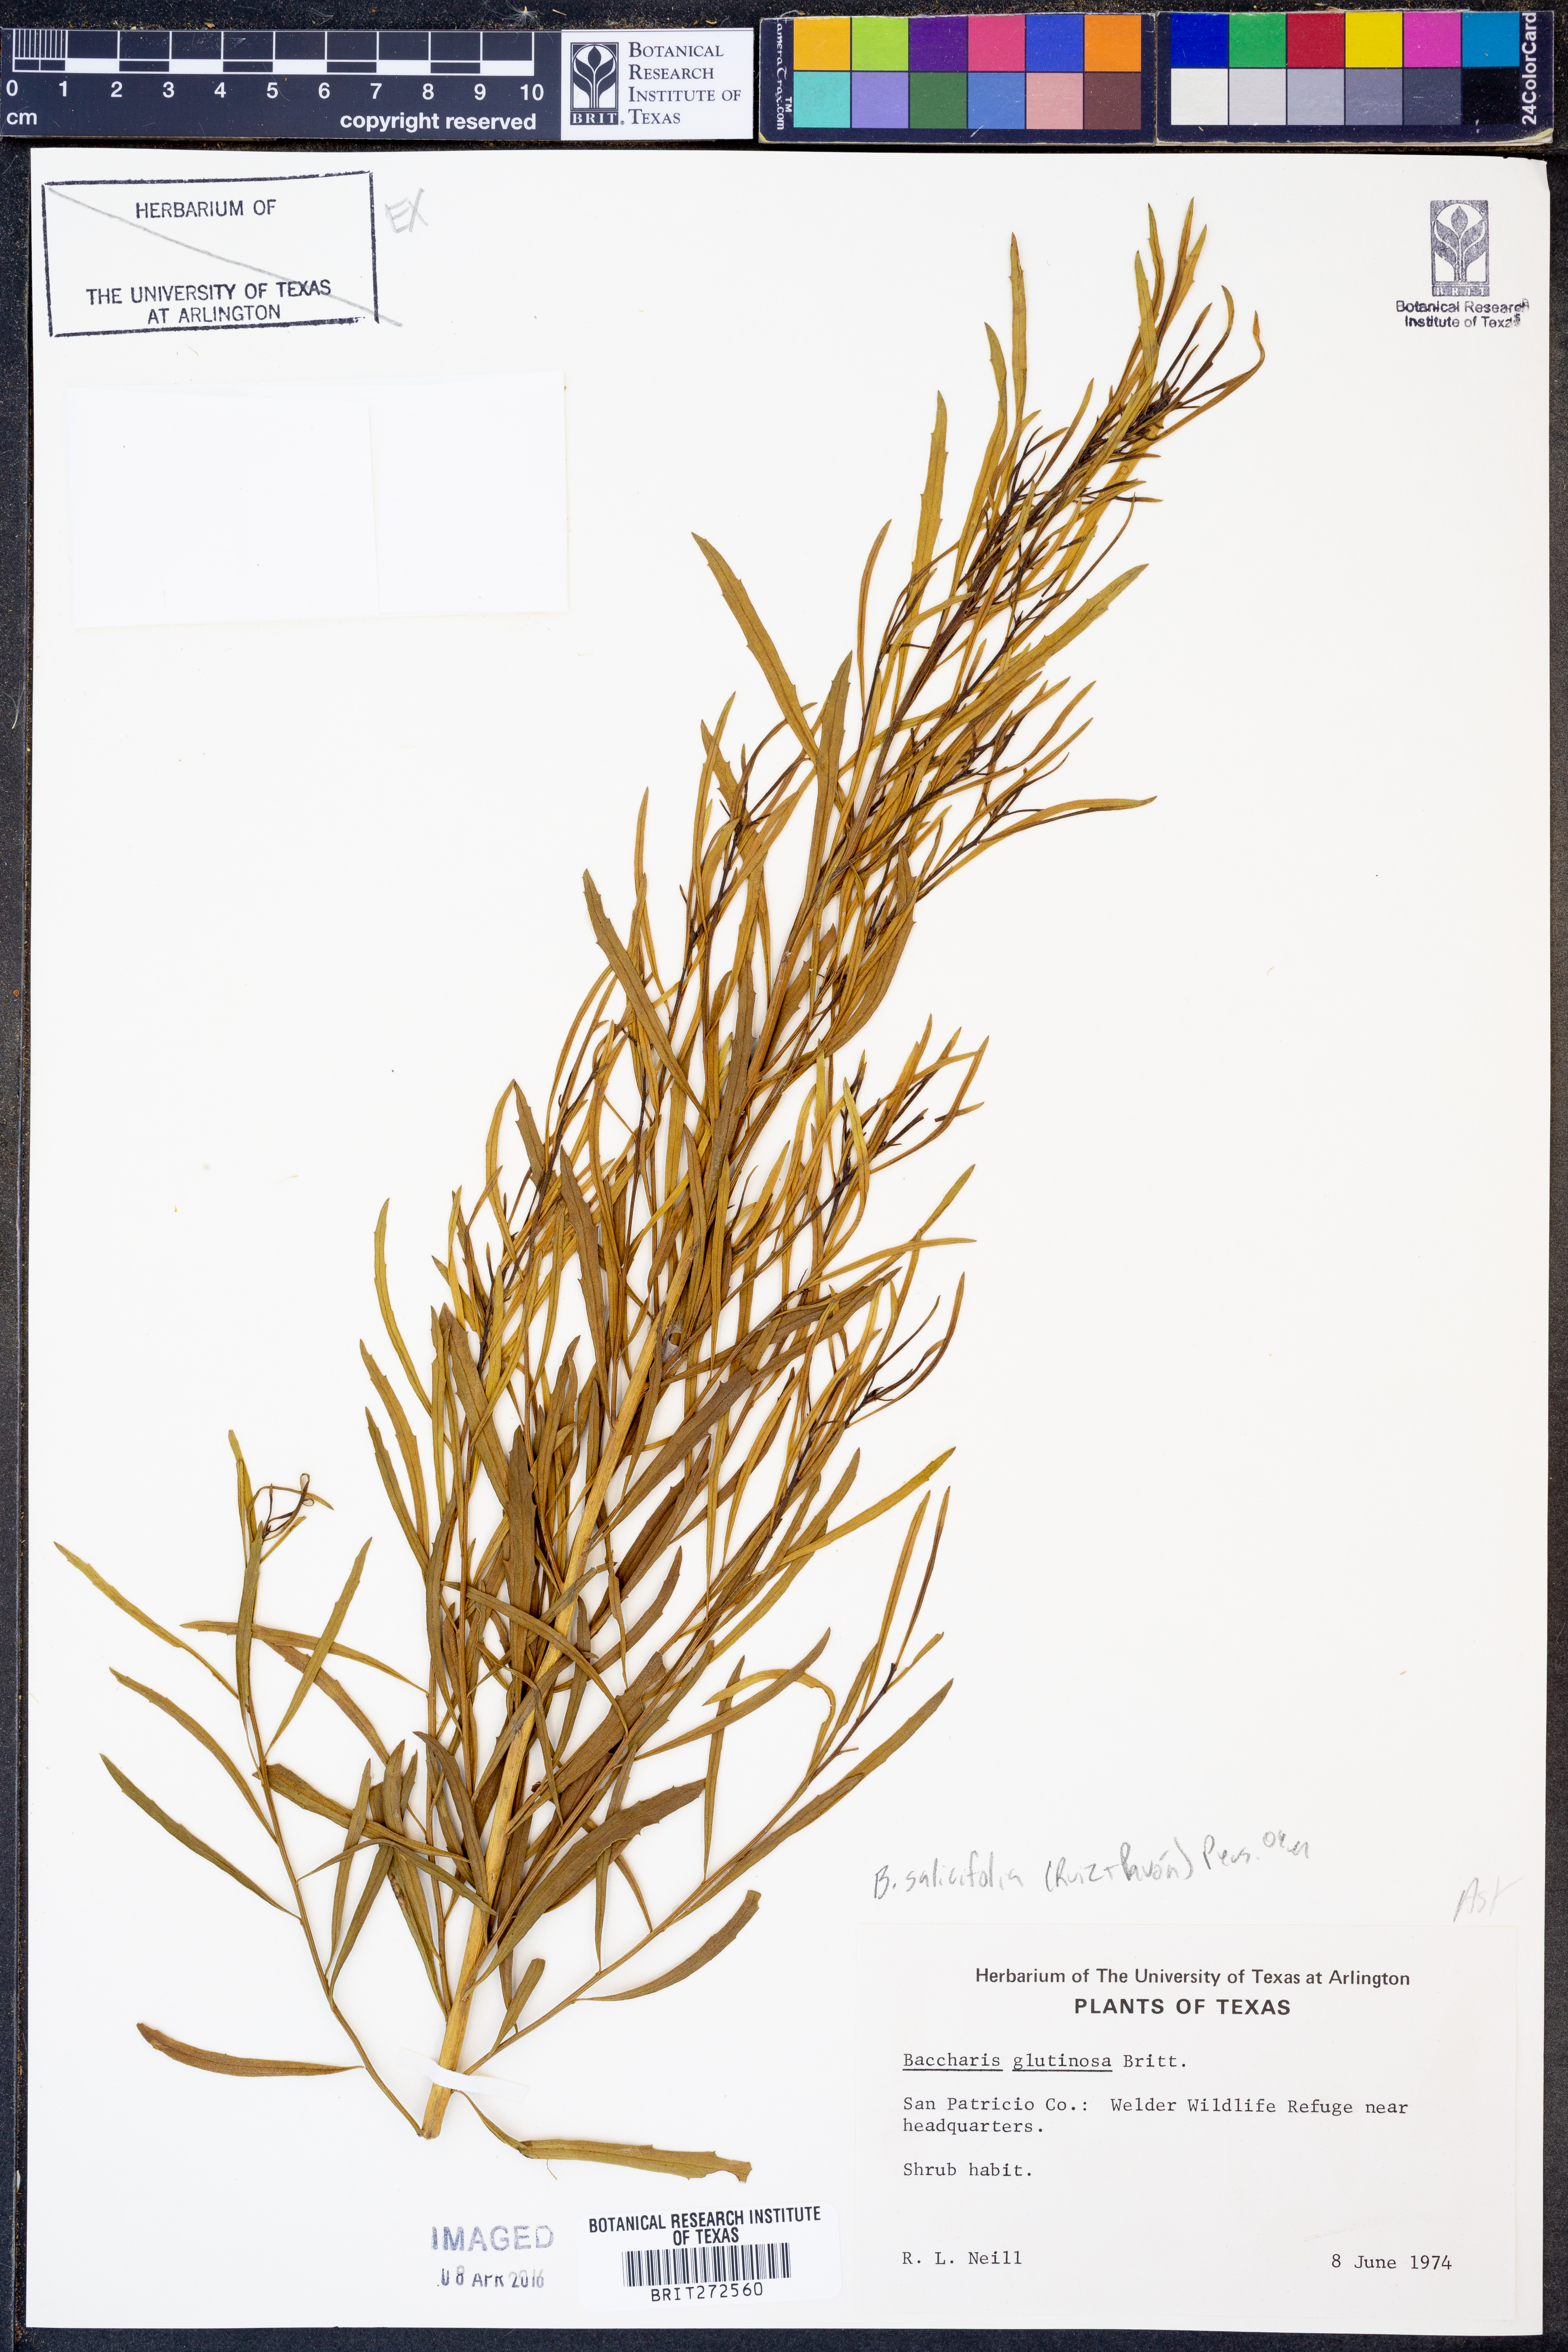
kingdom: Plantae
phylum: Tracheophyta
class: Magnoliopsida
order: Asterales
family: Asteraceae
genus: Baccharis
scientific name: Baccharis salicifolia
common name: Sticky baccharis
